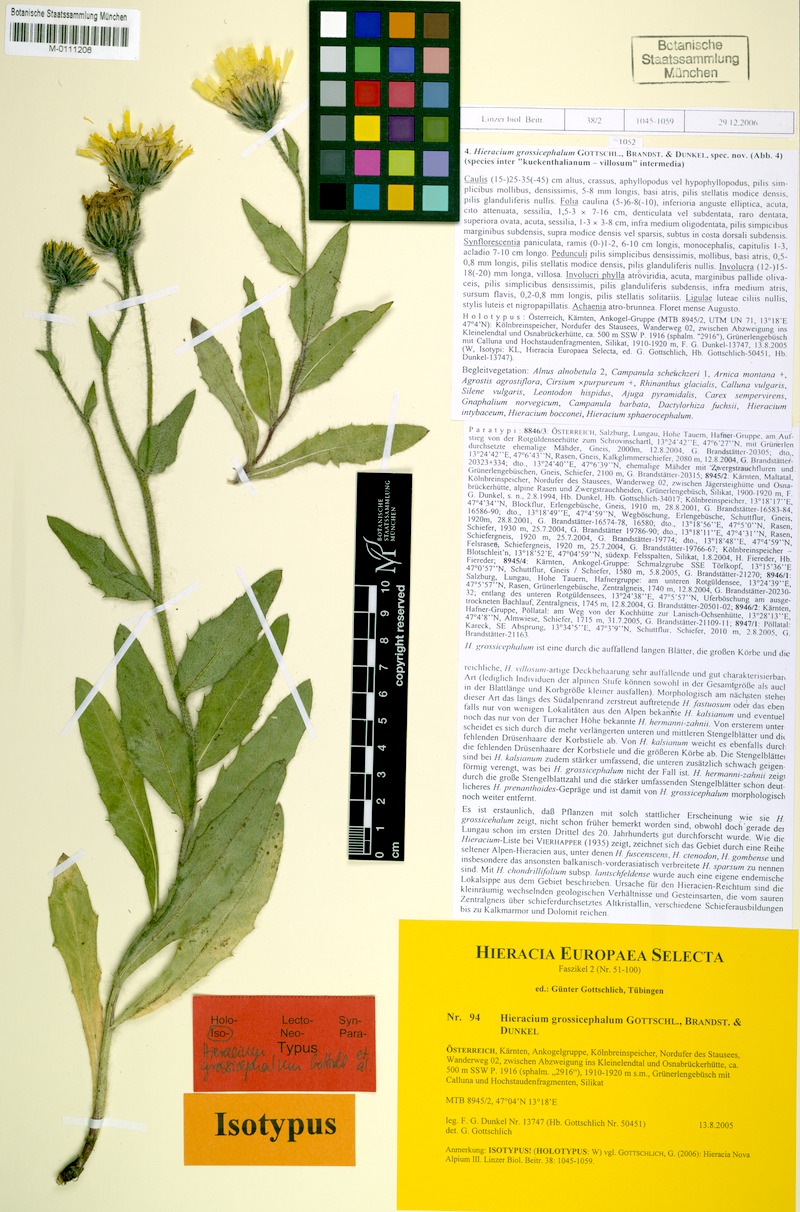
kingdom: Plantae
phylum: Tracheophyta
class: Magnoliopsida
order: Asterales
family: Asteraceae
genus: Hieracium
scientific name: Hieracium grossicephalum
